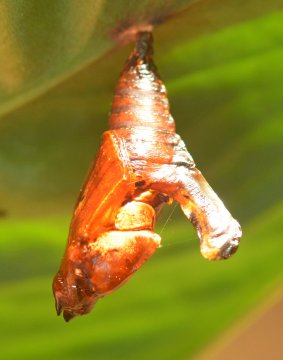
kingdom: Animalia
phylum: Arthropoda
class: Insecta
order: Lepidoptera
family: Nymphalidae
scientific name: Nymphalidae
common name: Brushfoots
